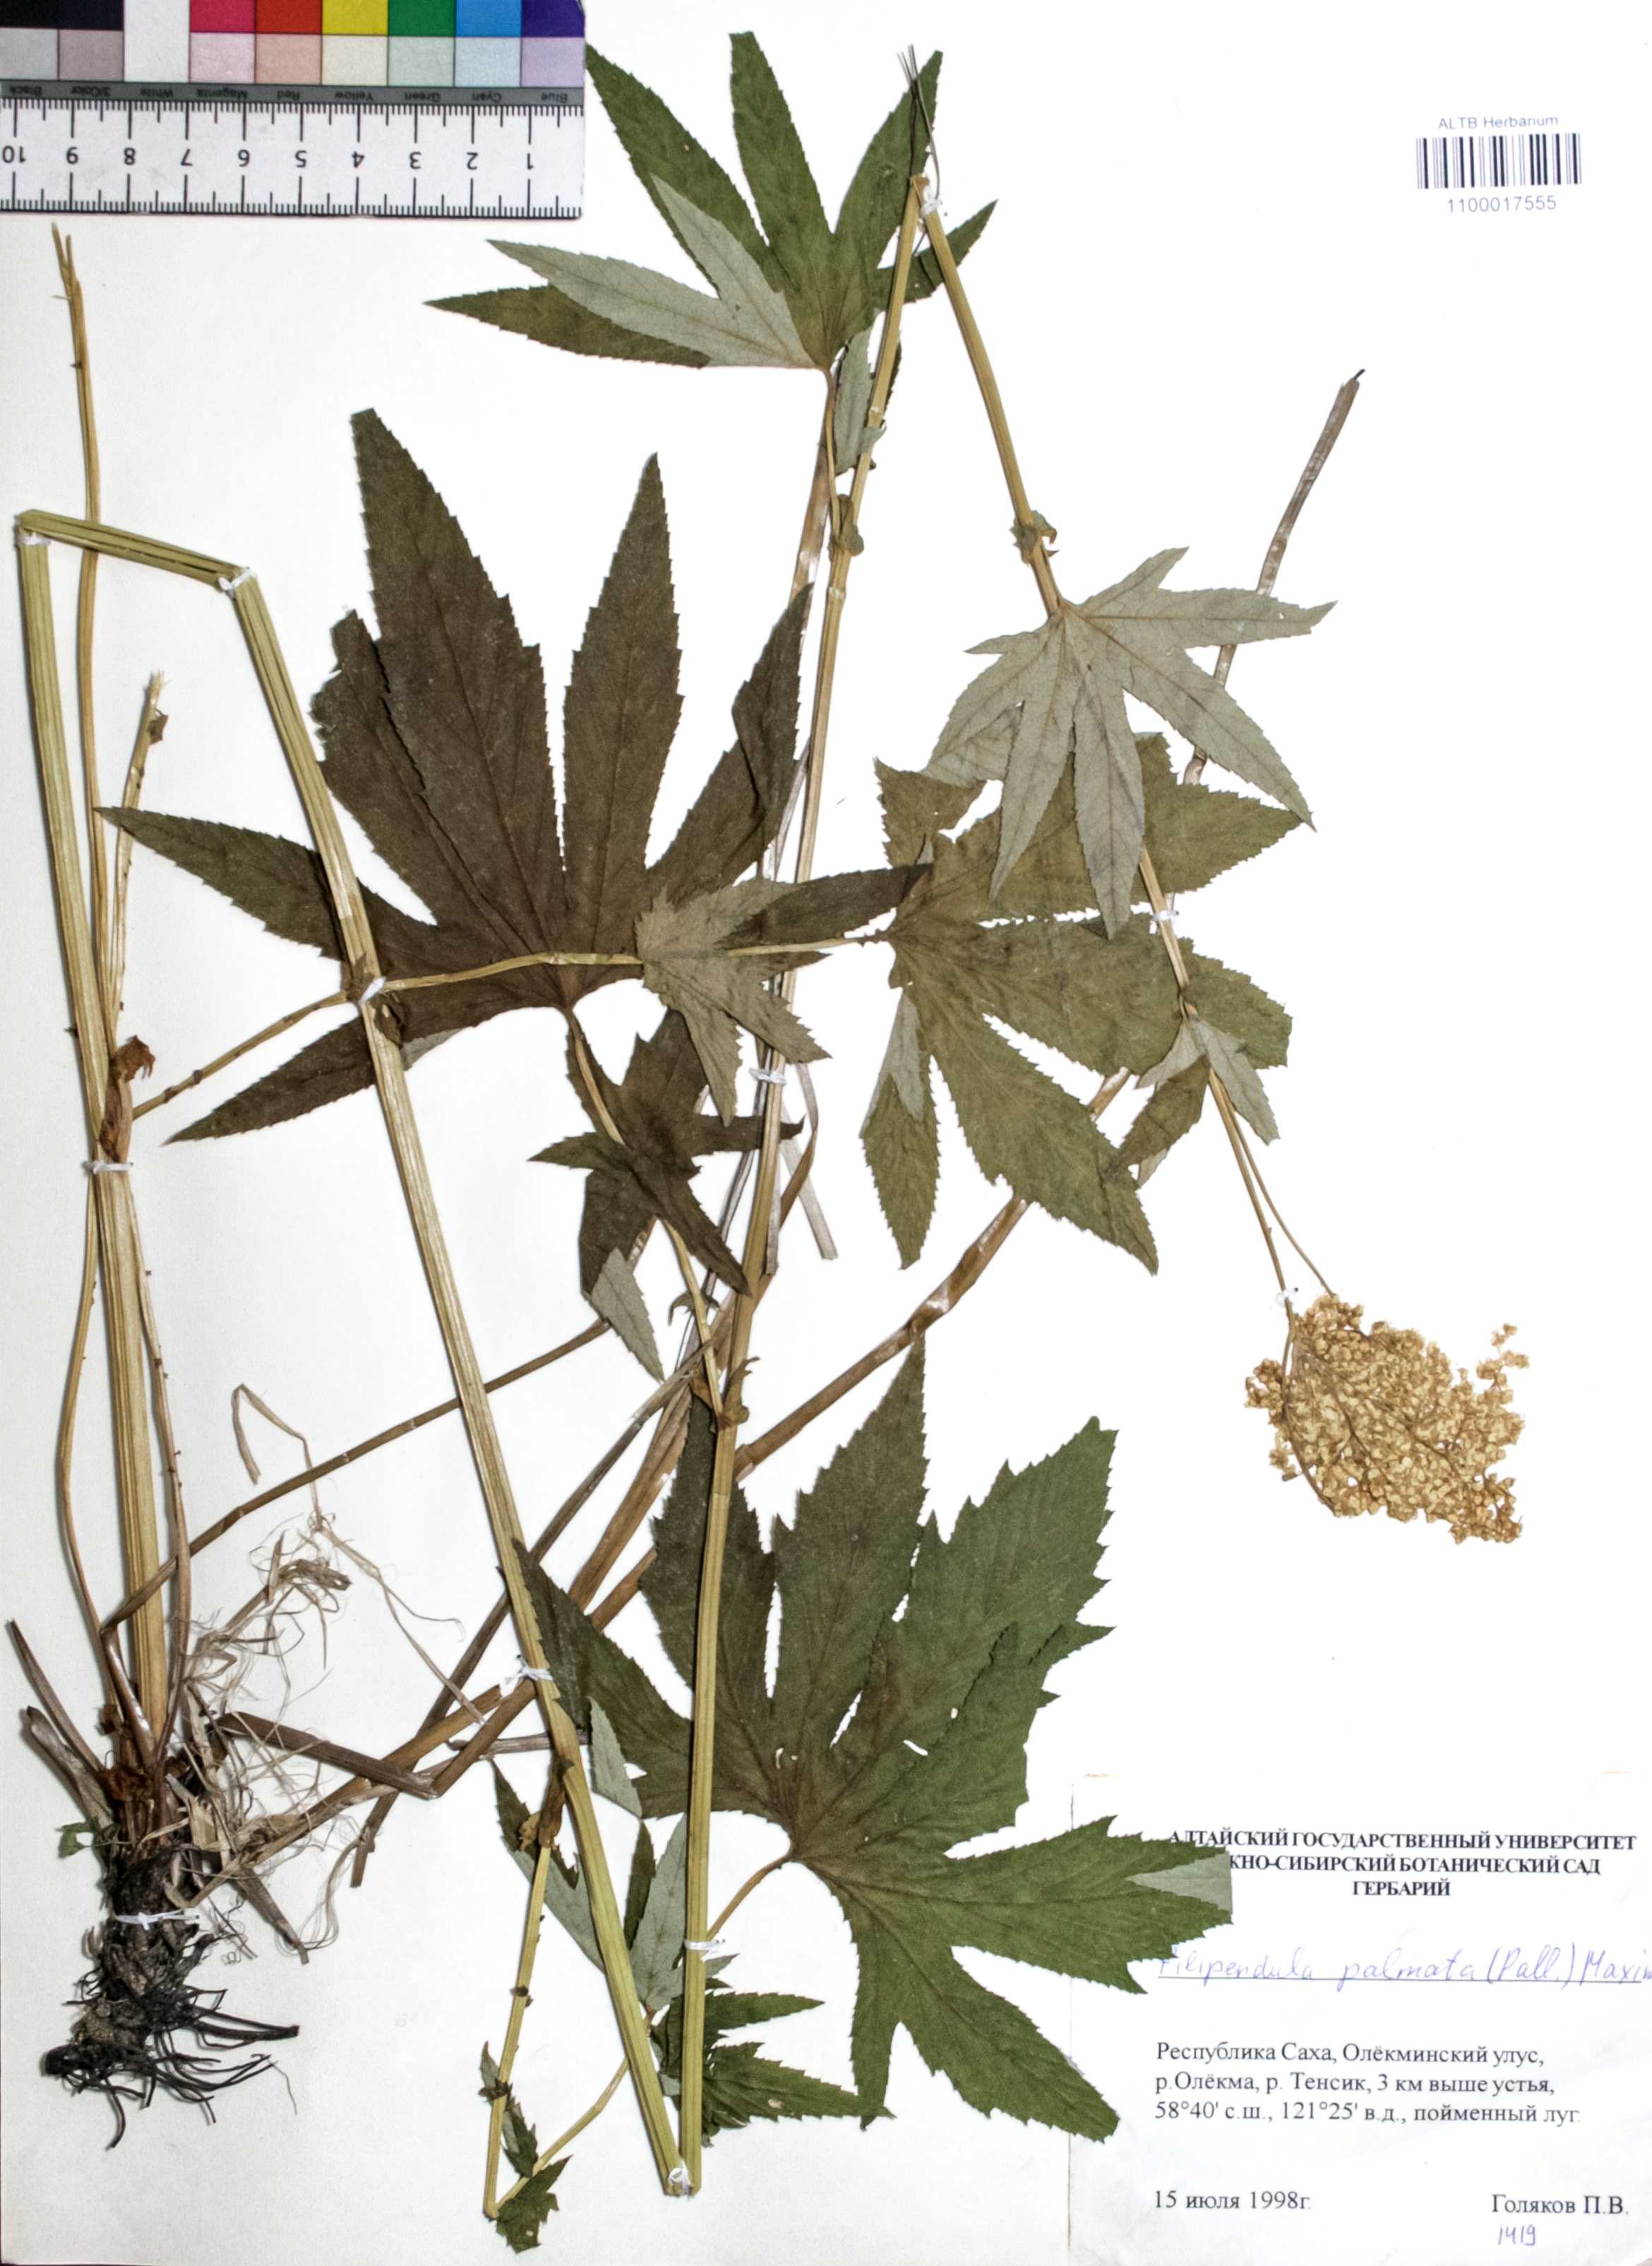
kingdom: Plantae
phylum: Tracheophyta
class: Magnoliopsida
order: Rosales
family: Rosaceae
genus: Filipendula
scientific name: Filipendula digitata
